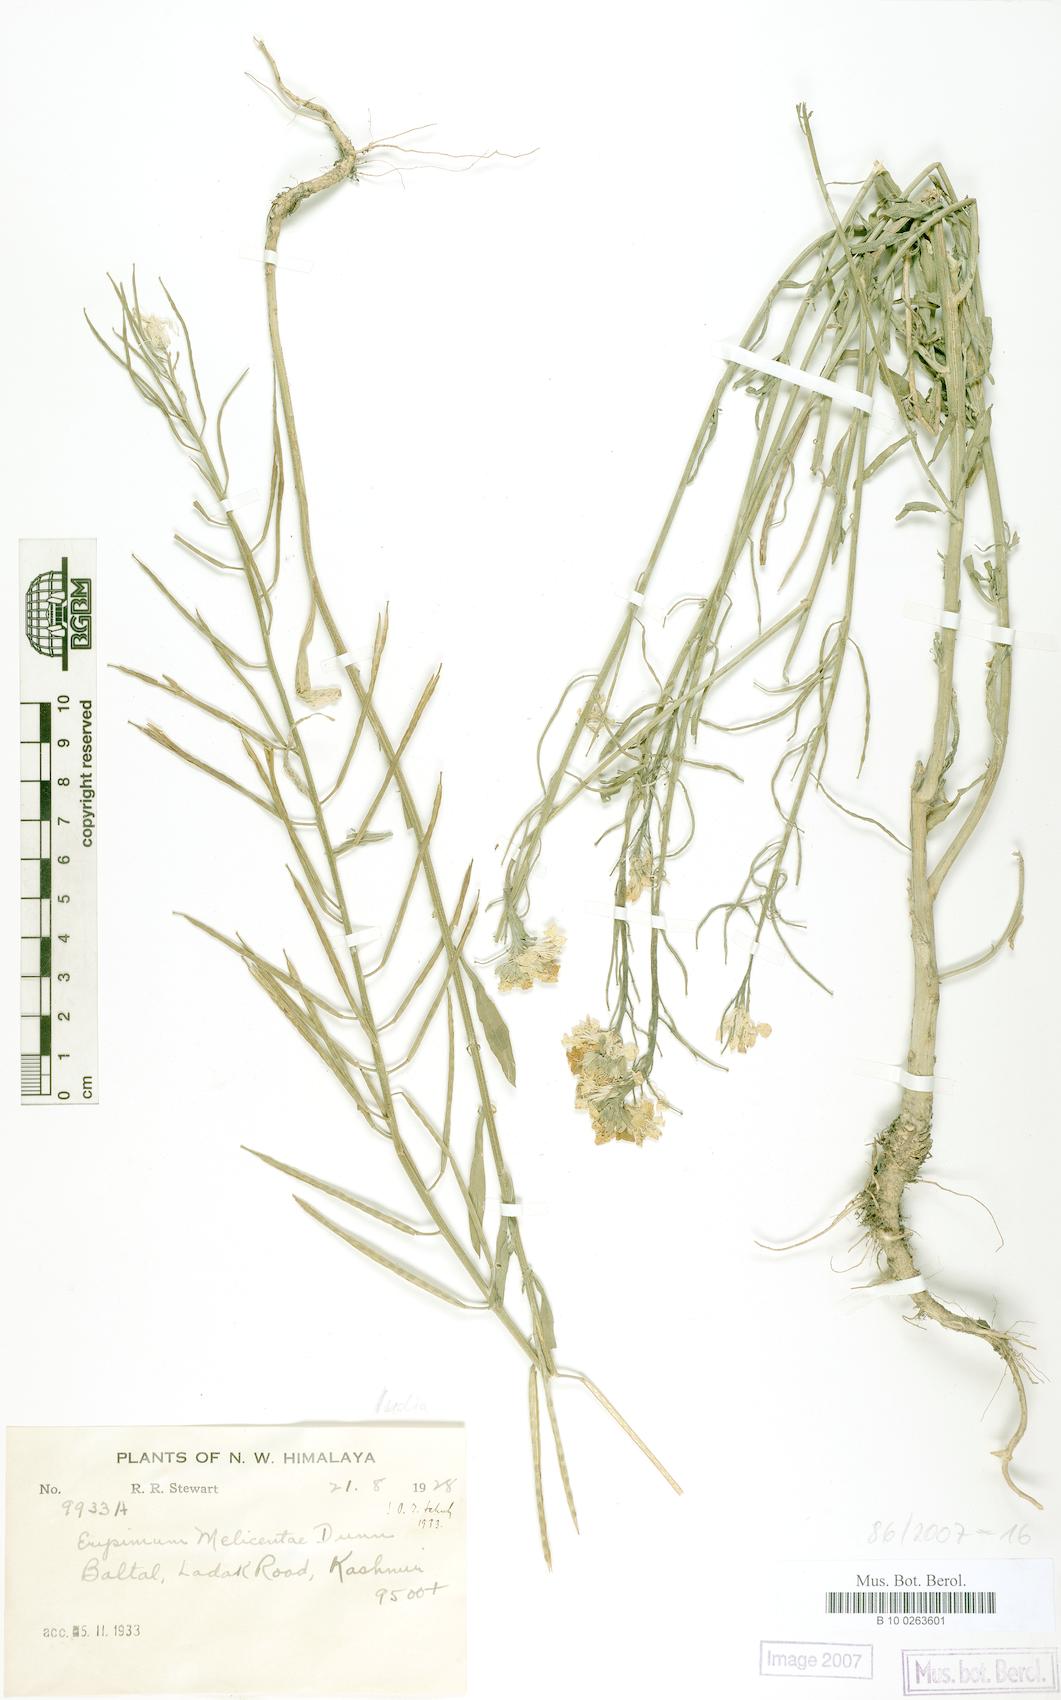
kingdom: Plantae
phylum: Tracheophyta
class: Magnoliopsida
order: Brassicales
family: Brassicaceae
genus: Erysimum
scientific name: Erysimum melicentae
